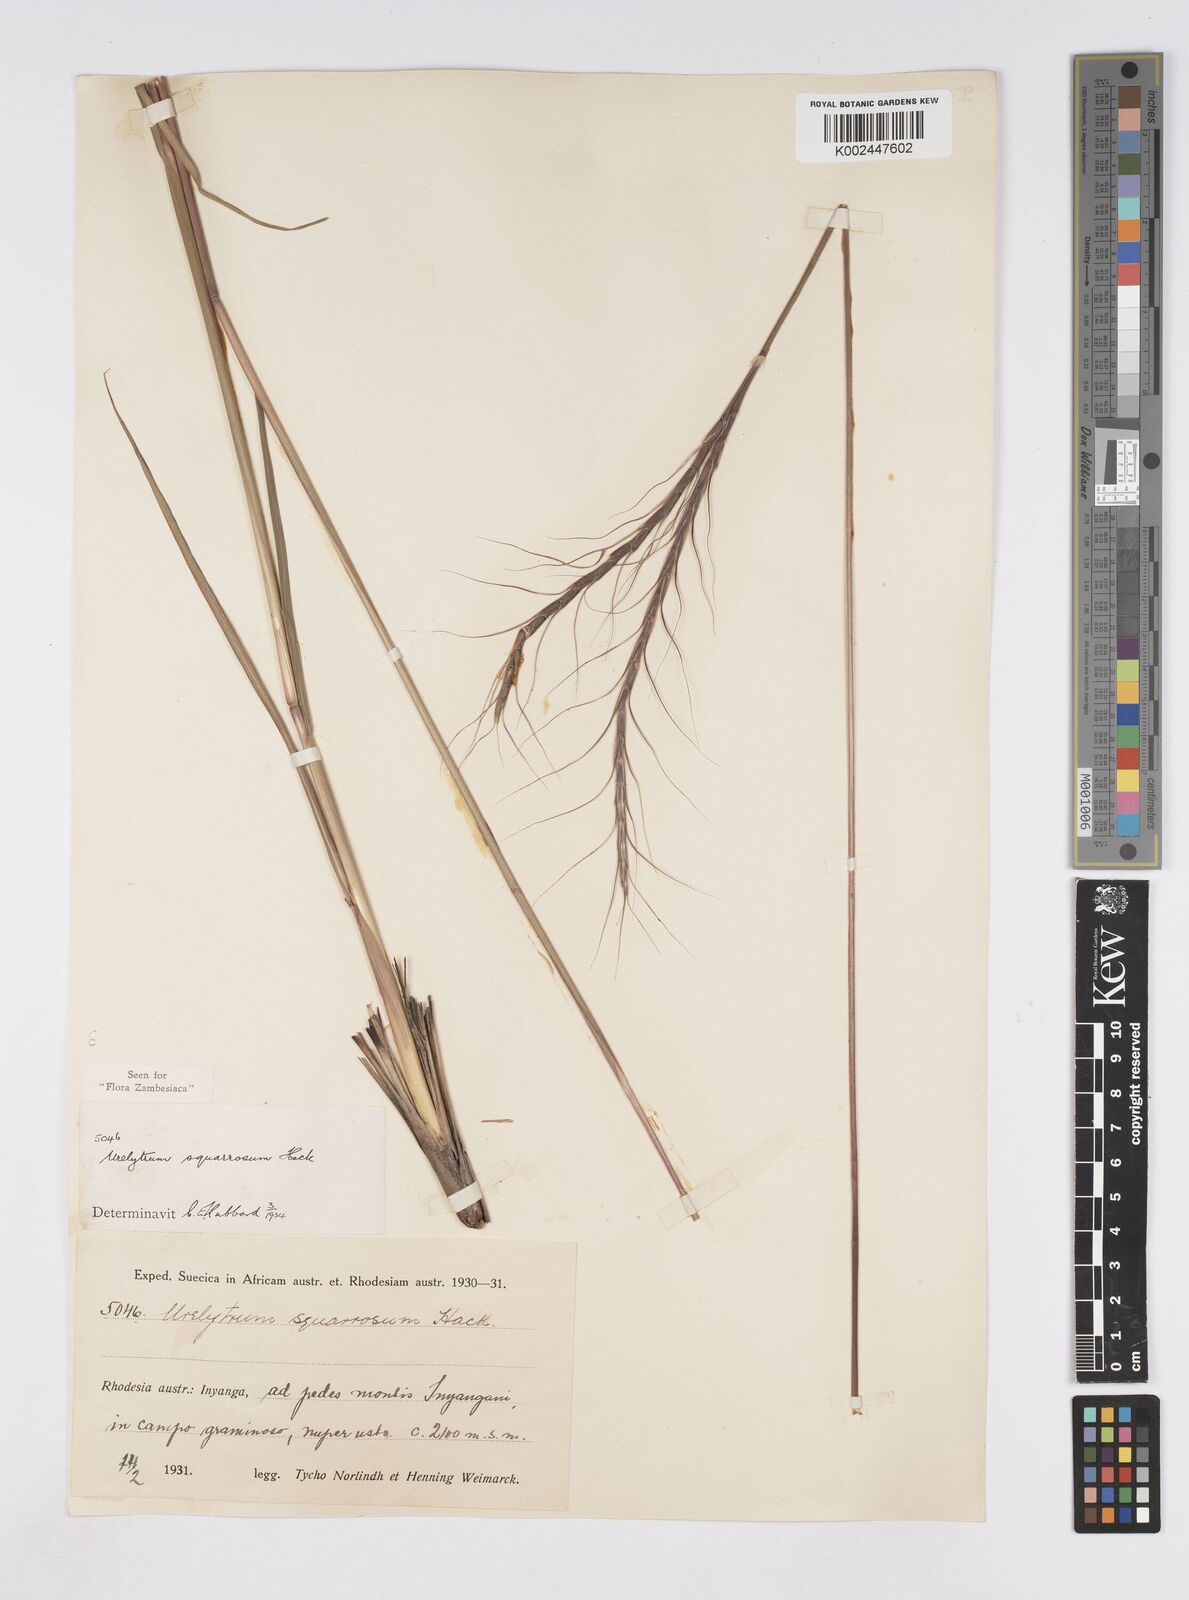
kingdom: Plantae
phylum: Tracheophyta
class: Liliopsida
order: Poales
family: Poaceae
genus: Urelytrum
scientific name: Urelytrum agropyroides
